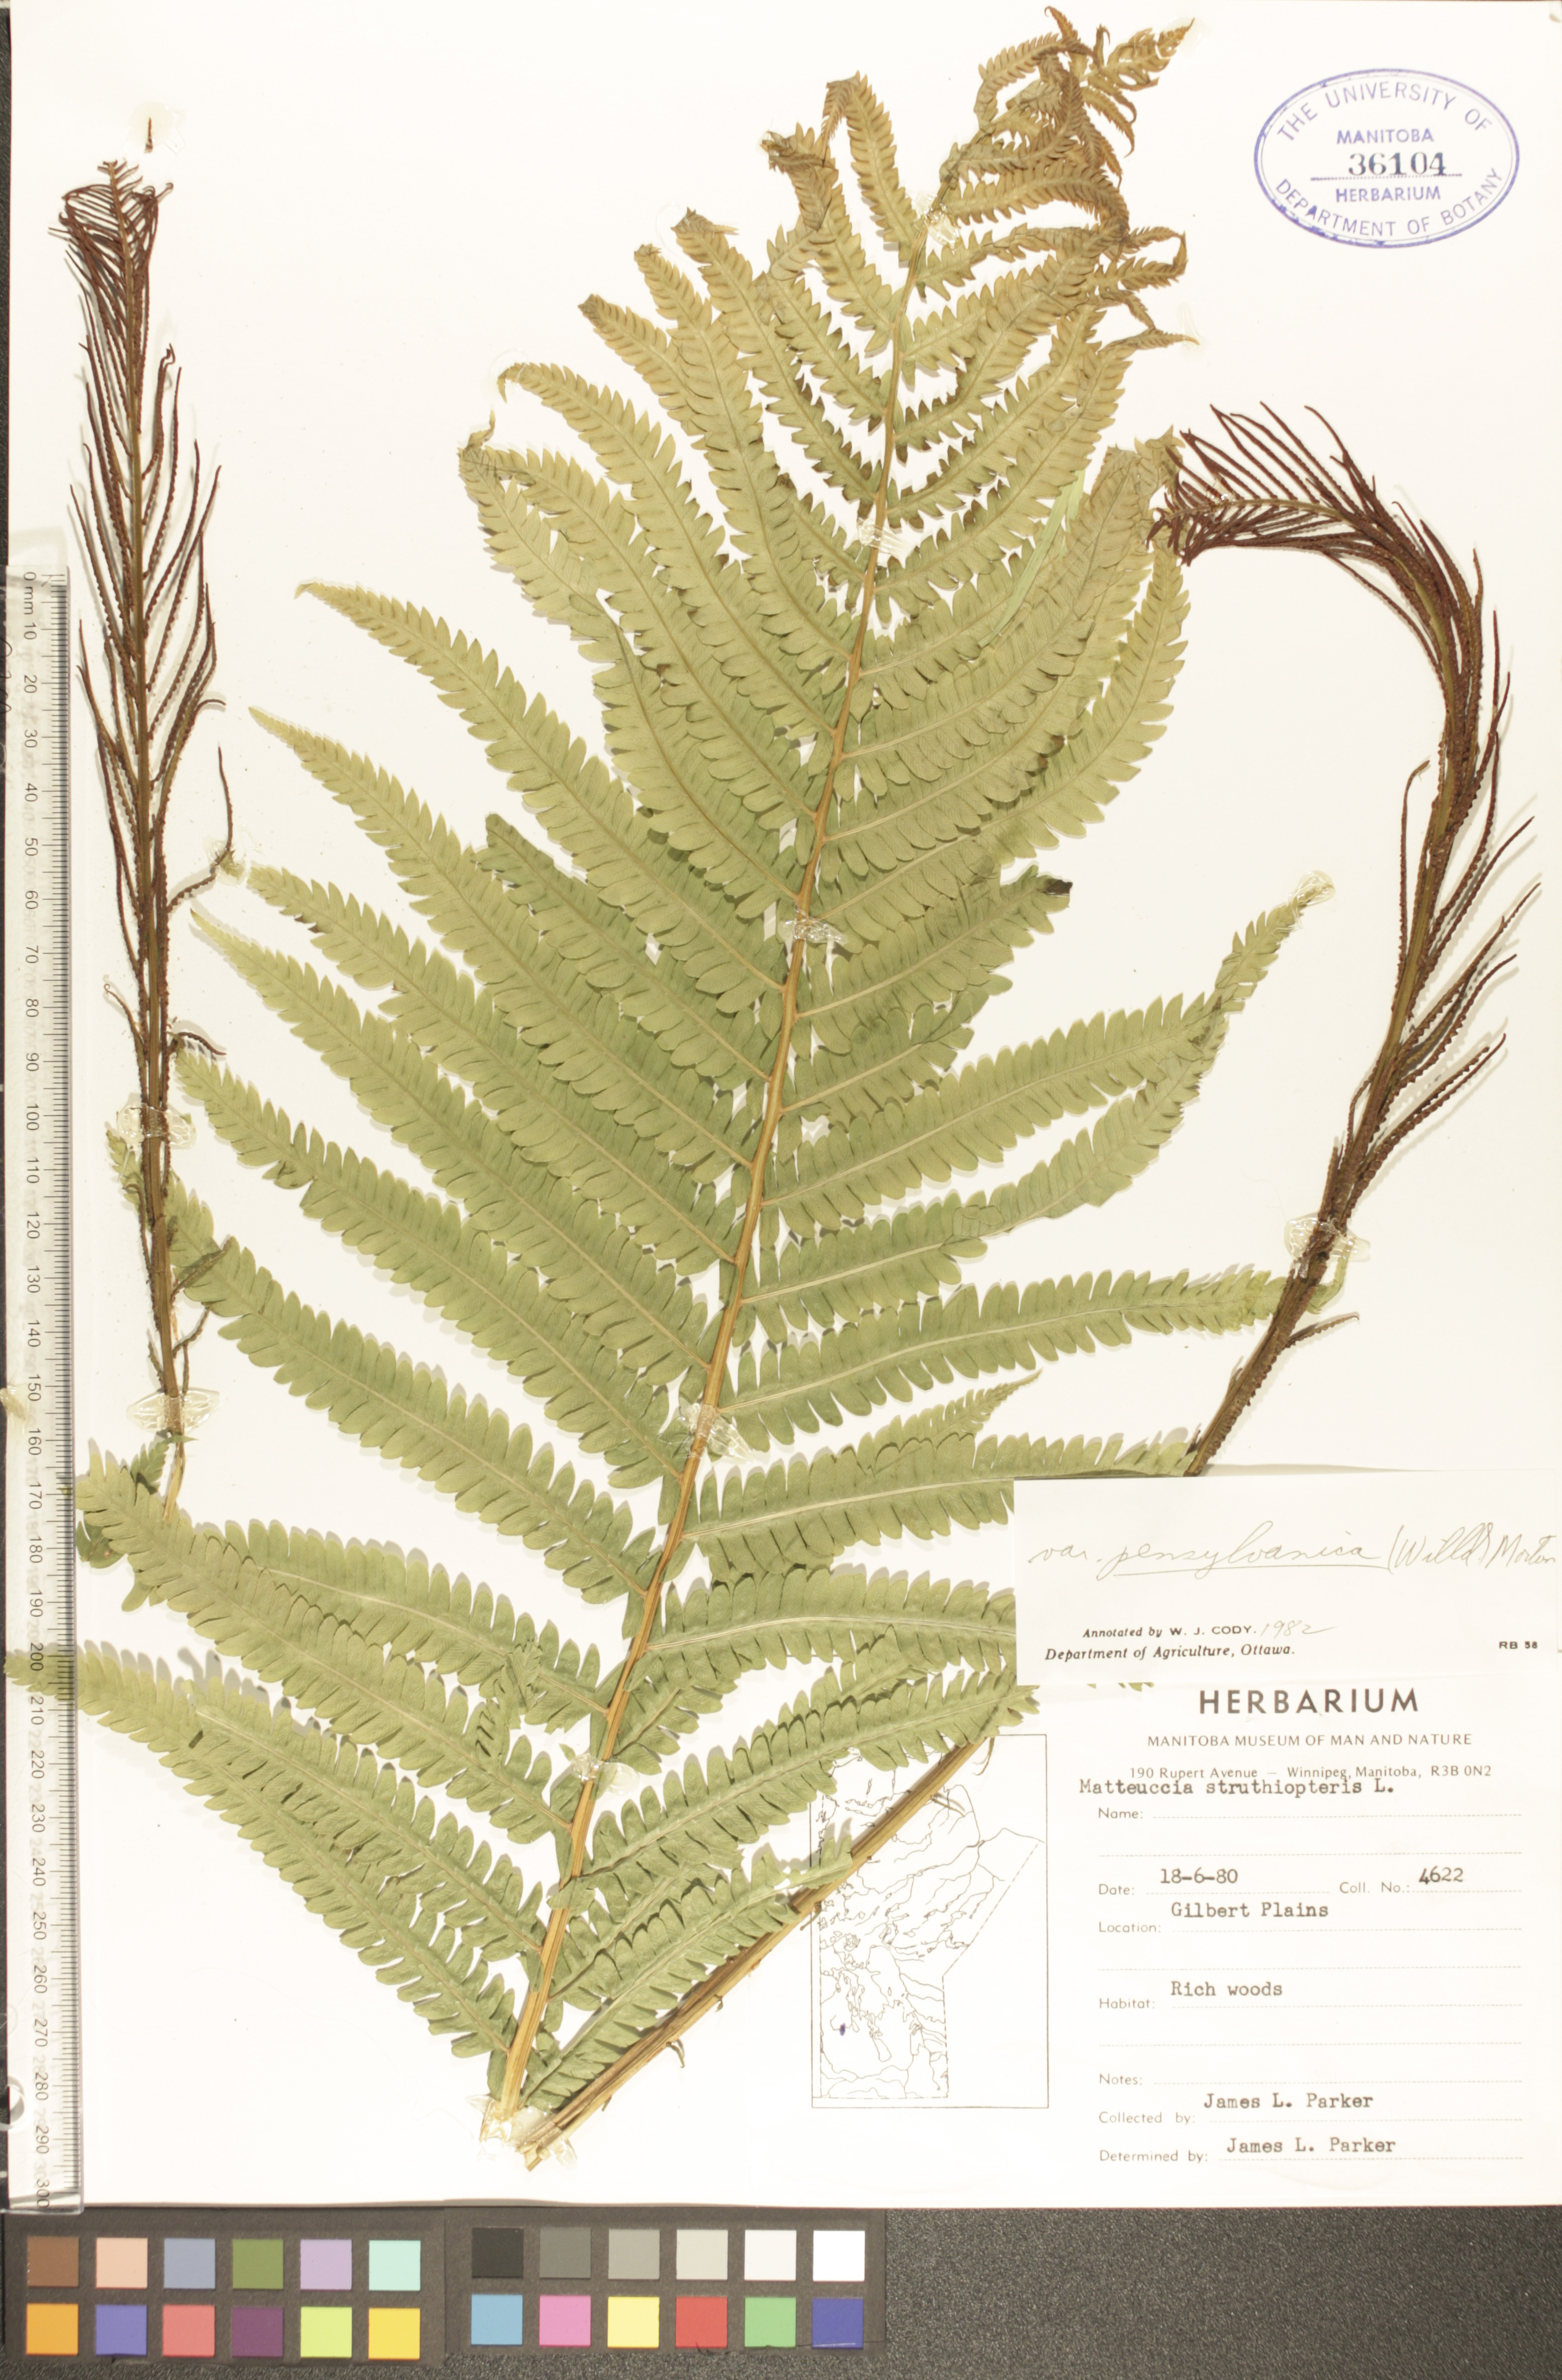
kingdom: Plantae
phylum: Tracheophyta
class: Polypodiopsida
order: Polypodiales
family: Onocleaceae
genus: Matteuccia
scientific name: Matteuccia pensylvanica
